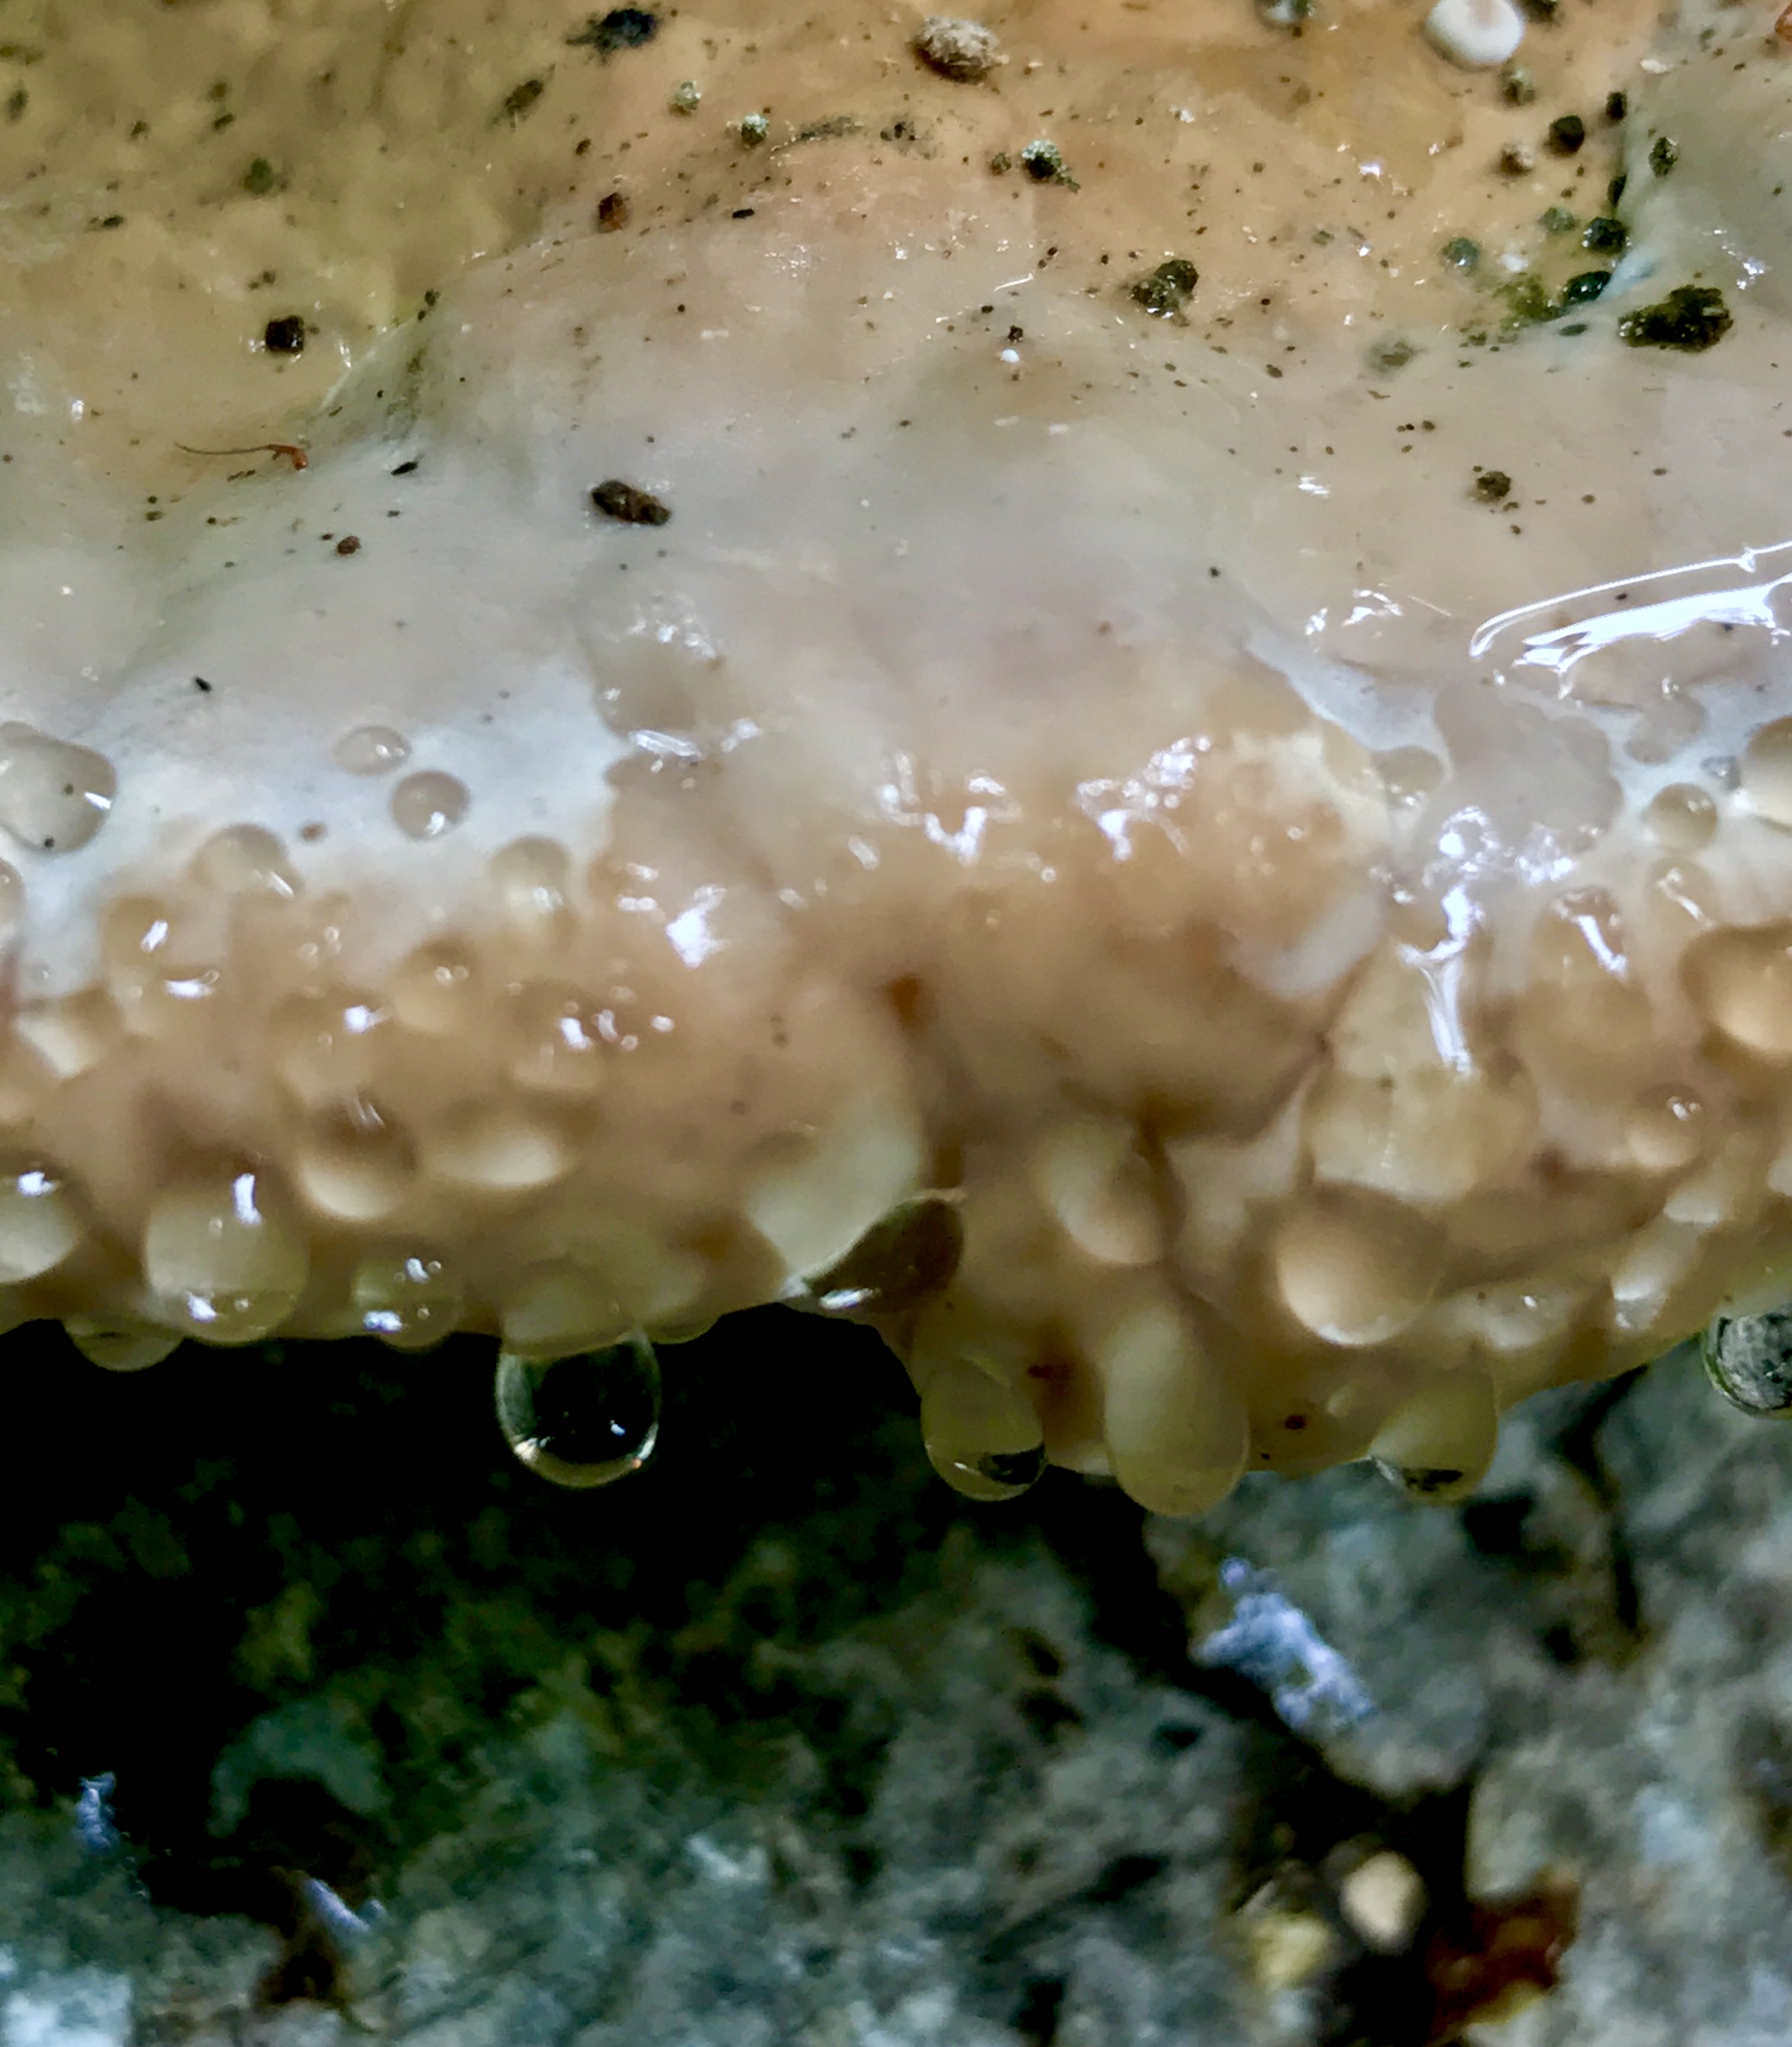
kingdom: Fungi
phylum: Basidiomycota
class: Agaricomycetes
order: Polyporales
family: Fomitopsidaceae
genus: Fomitopsis
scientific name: Fomitopsis pinicola
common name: randbæltet hovporesvamp
